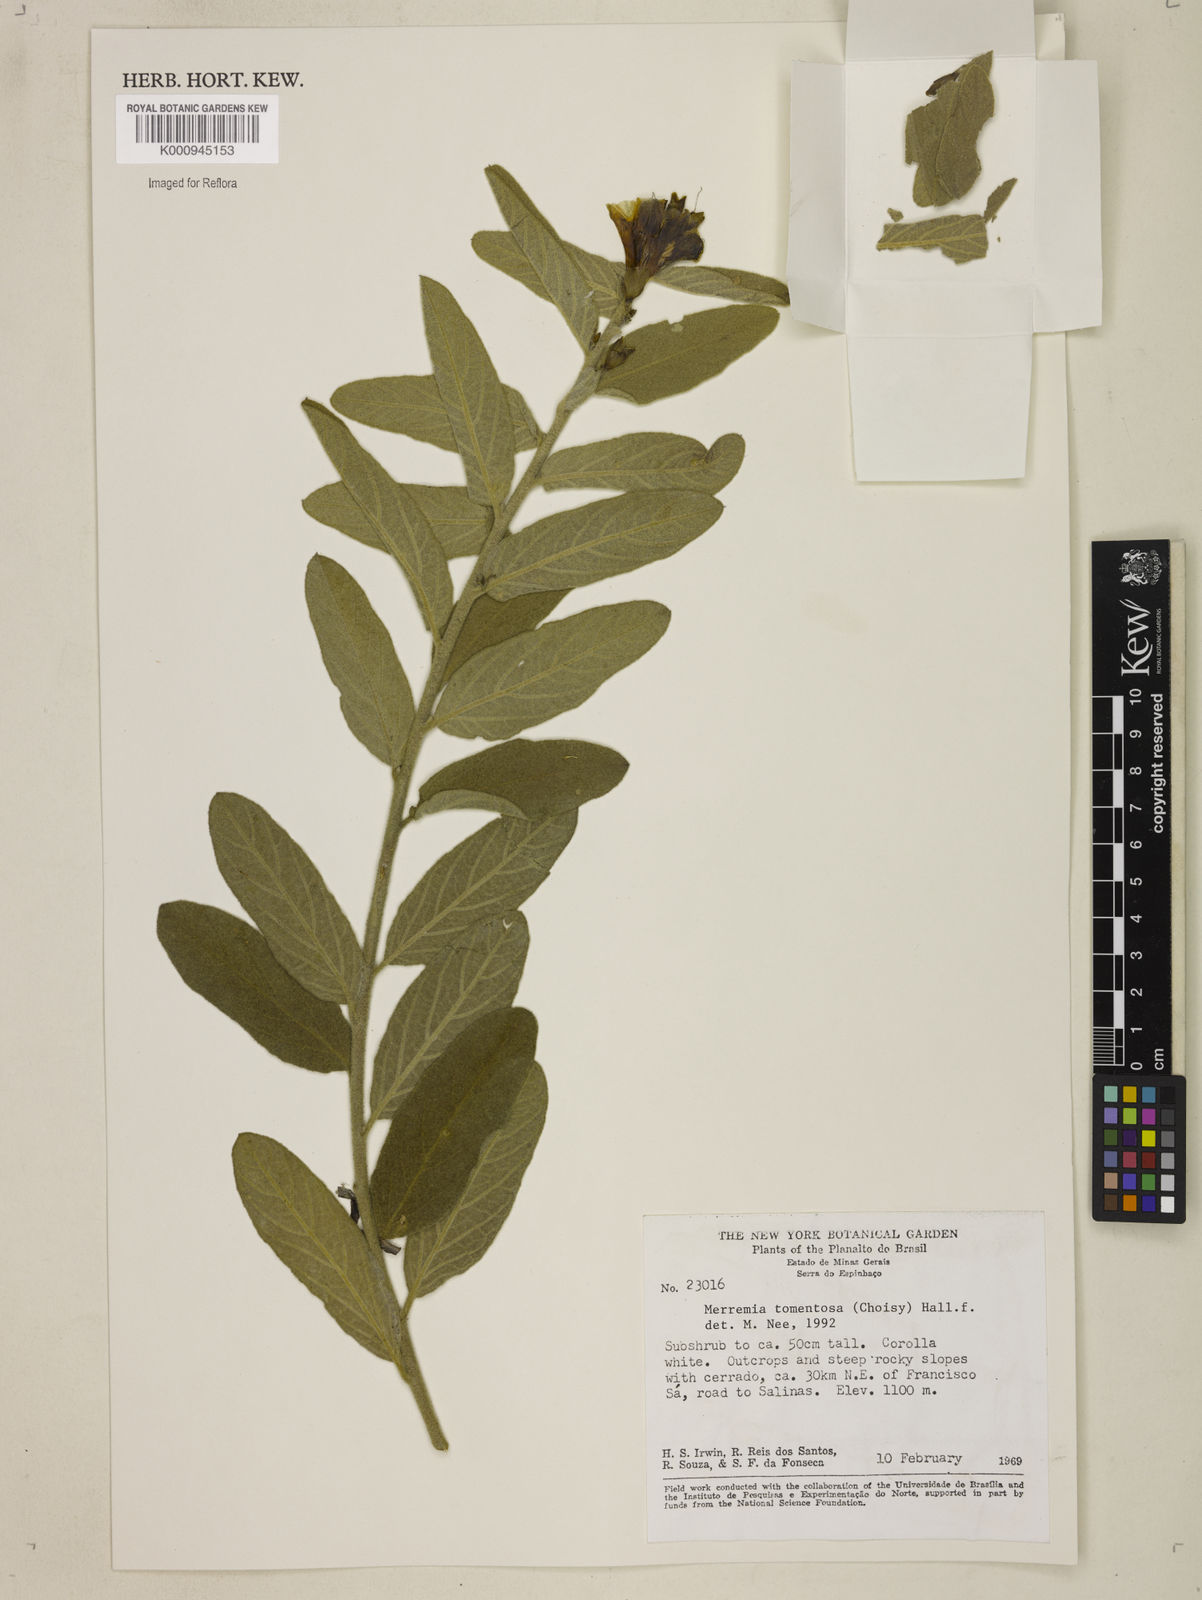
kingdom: Plantae
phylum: Tracheophyta
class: Magnoliopsida
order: Solanales
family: Convolvulaceae
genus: Distimake
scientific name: Distimake tomentosus
